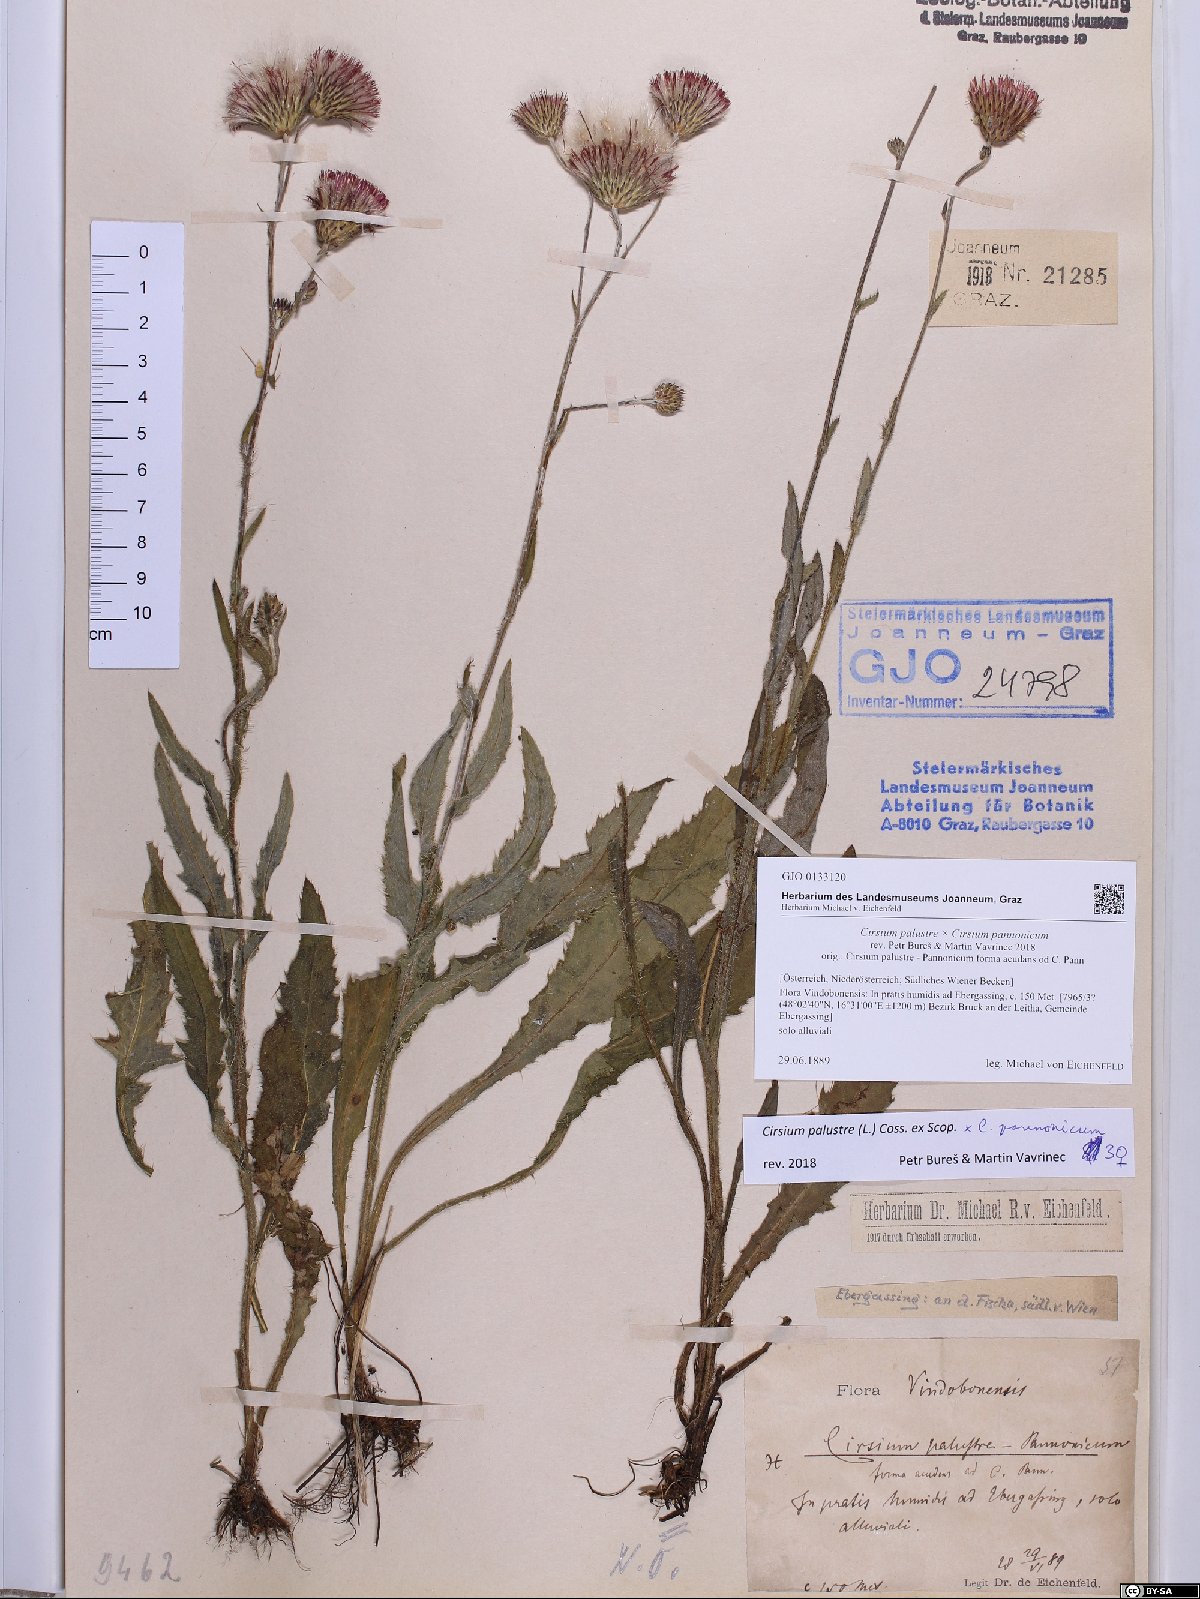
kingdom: Plantae
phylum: Tracheophyta
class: Magnoliopsida
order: Asterales
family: Asteraceae
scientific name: Asteraceae
